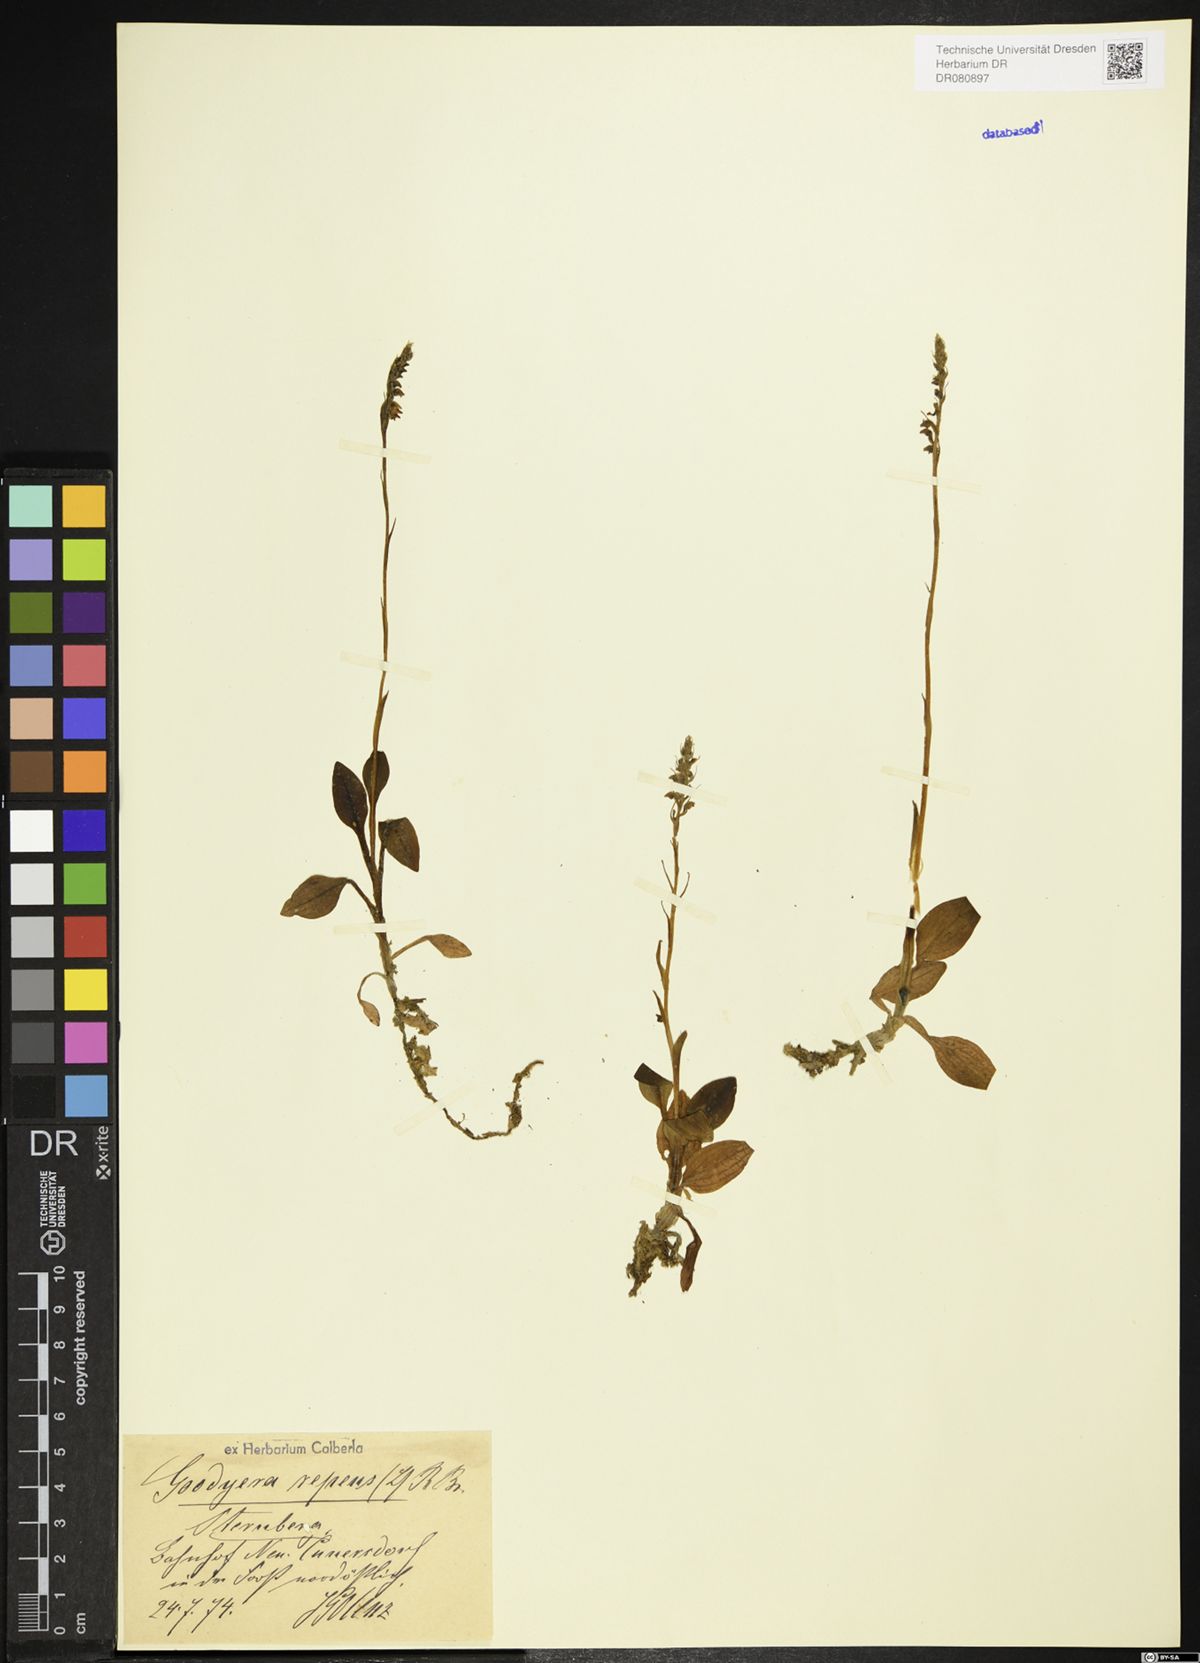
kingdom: Plantae
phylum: Tracheophyta
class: Liliopsida
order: Asparagales
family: Orchidaceae
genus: Goodyera
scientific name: Goodyera repens
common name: Creeping lady's-tresses
